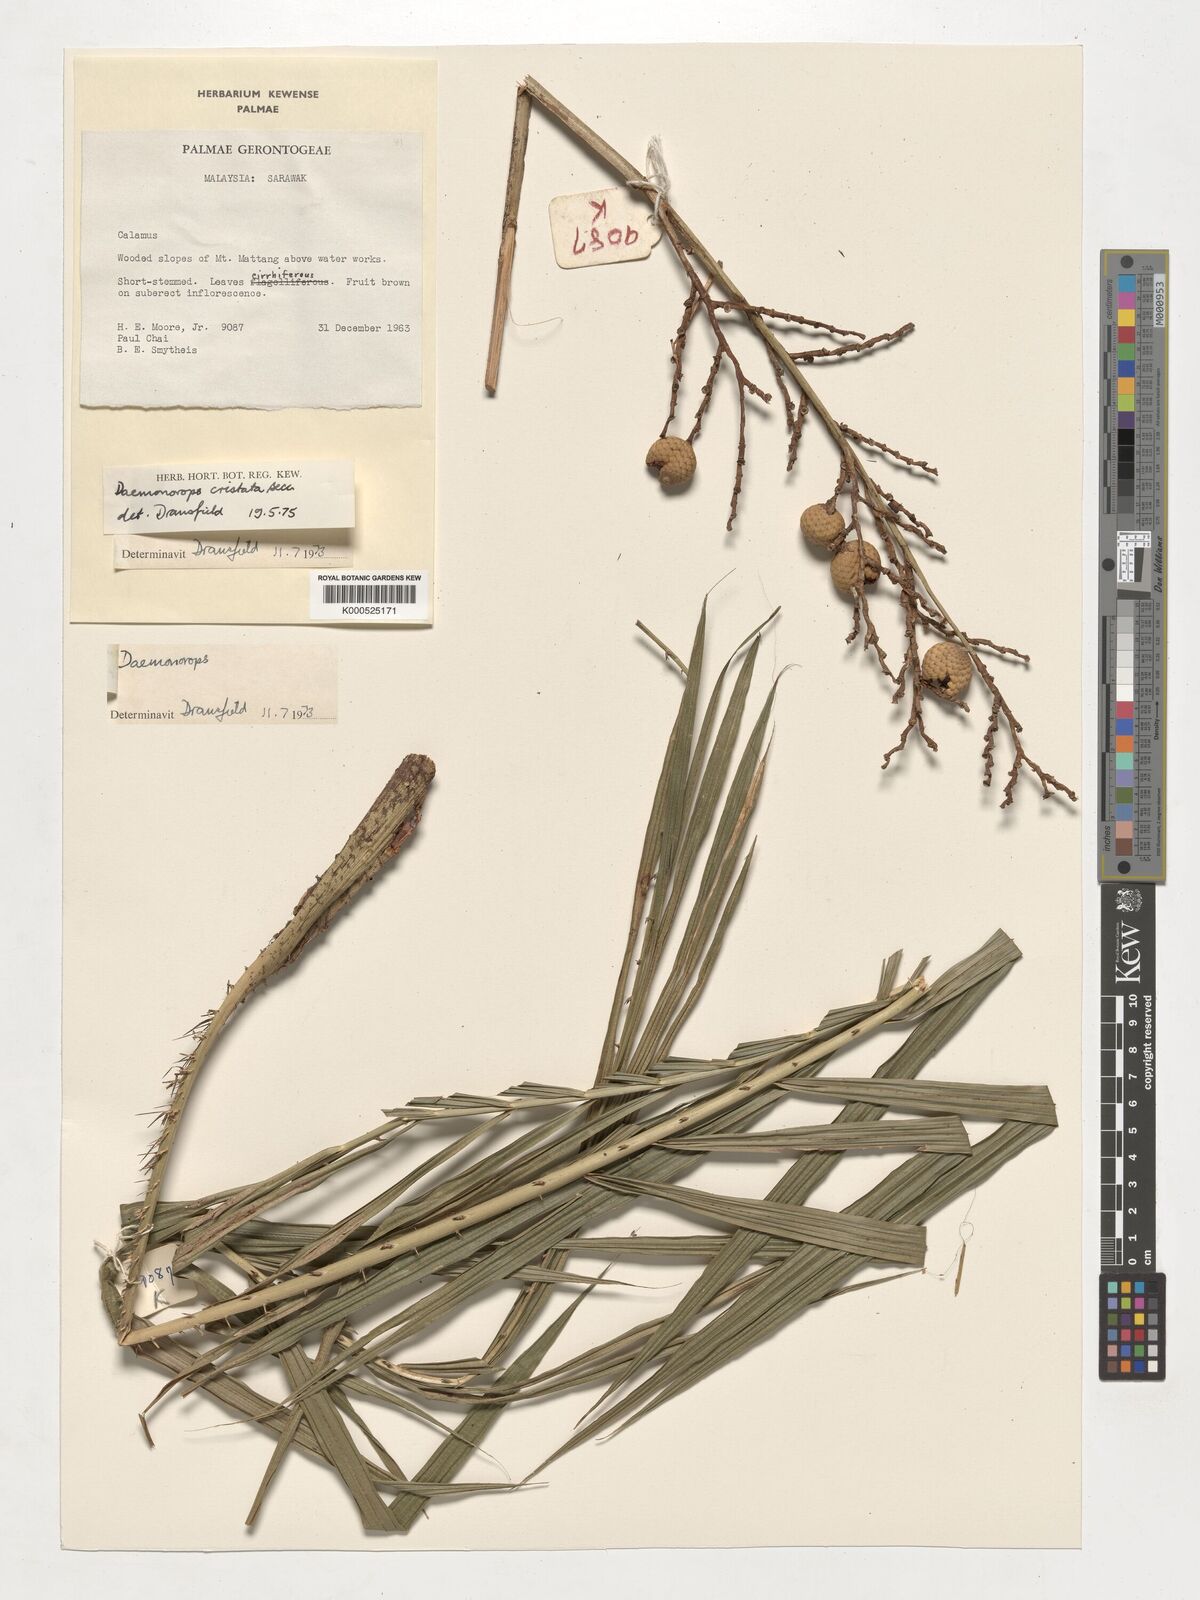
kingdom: Plantae
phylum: Tracheophyta
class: Liliopsida
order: Arecales
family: Arecaceae
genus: Calamus
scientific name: Calamus cristatus
